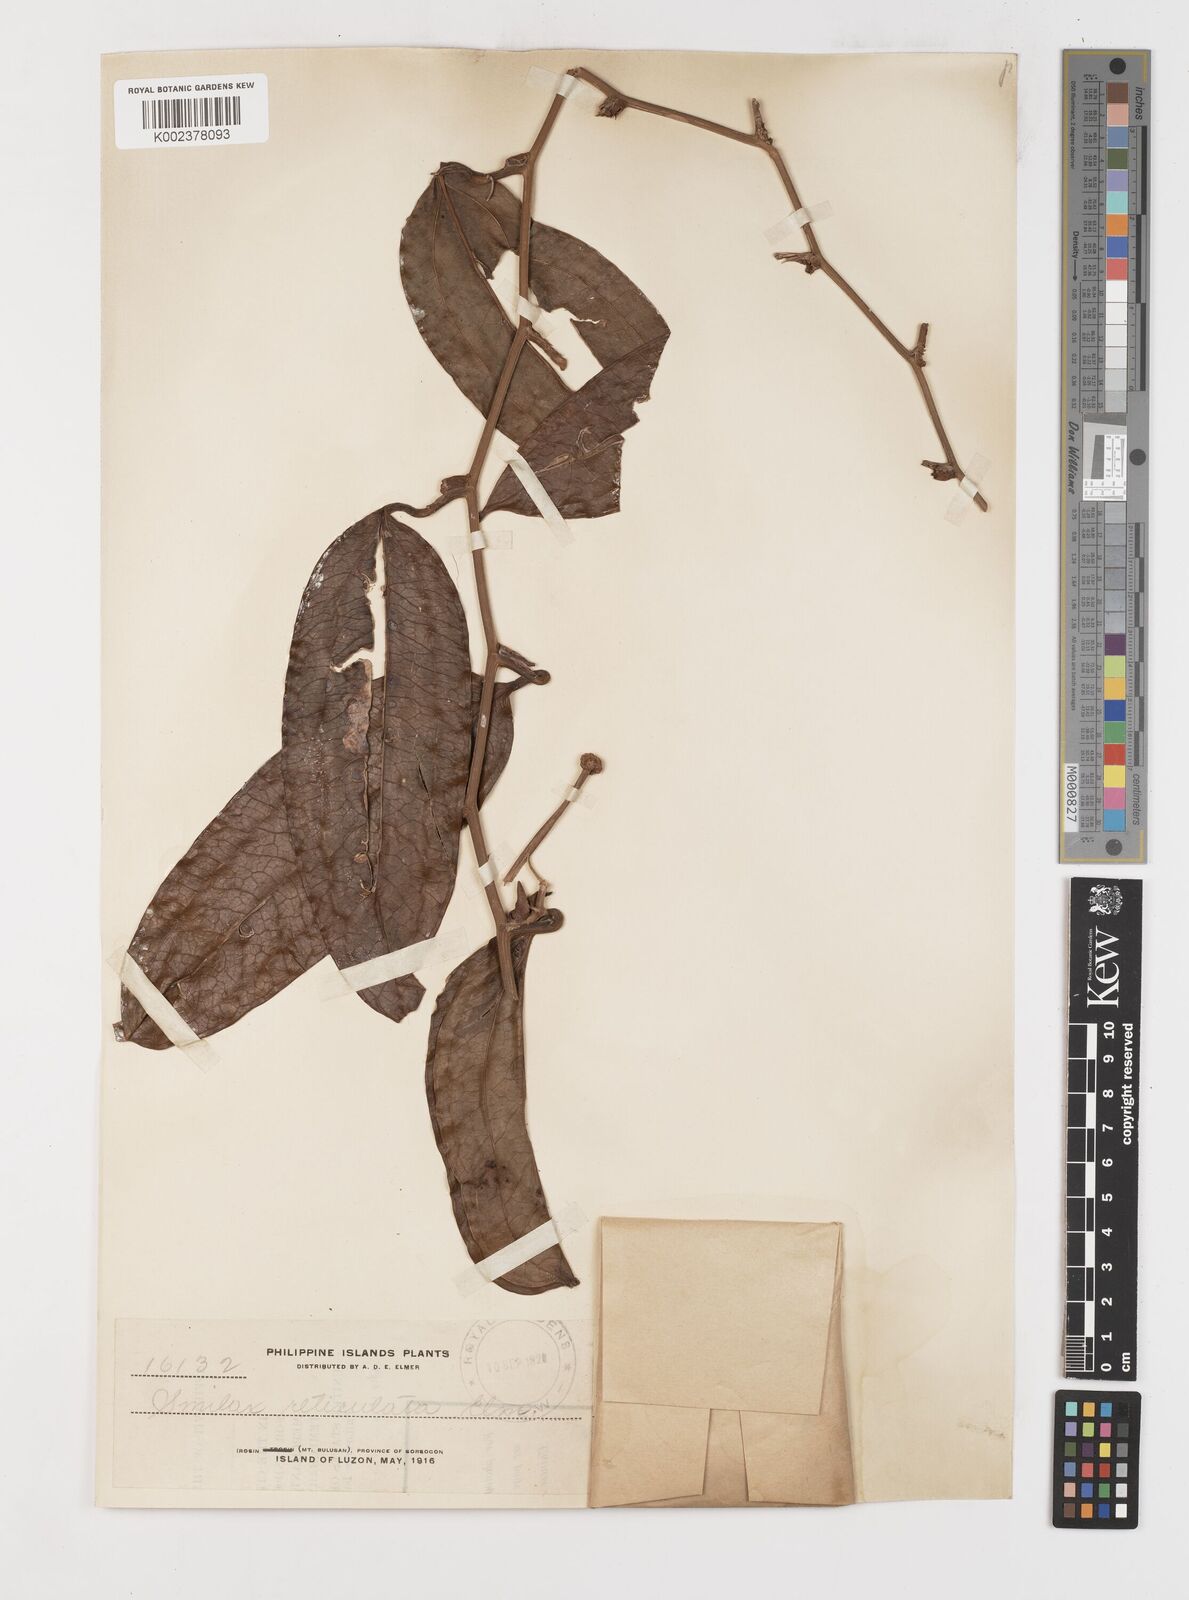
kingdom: Plantae
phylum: Tracheophyta
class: Liliopsida
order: Liliales
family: Smilacaceae
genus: Smilax
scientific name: Smilax elmeri
